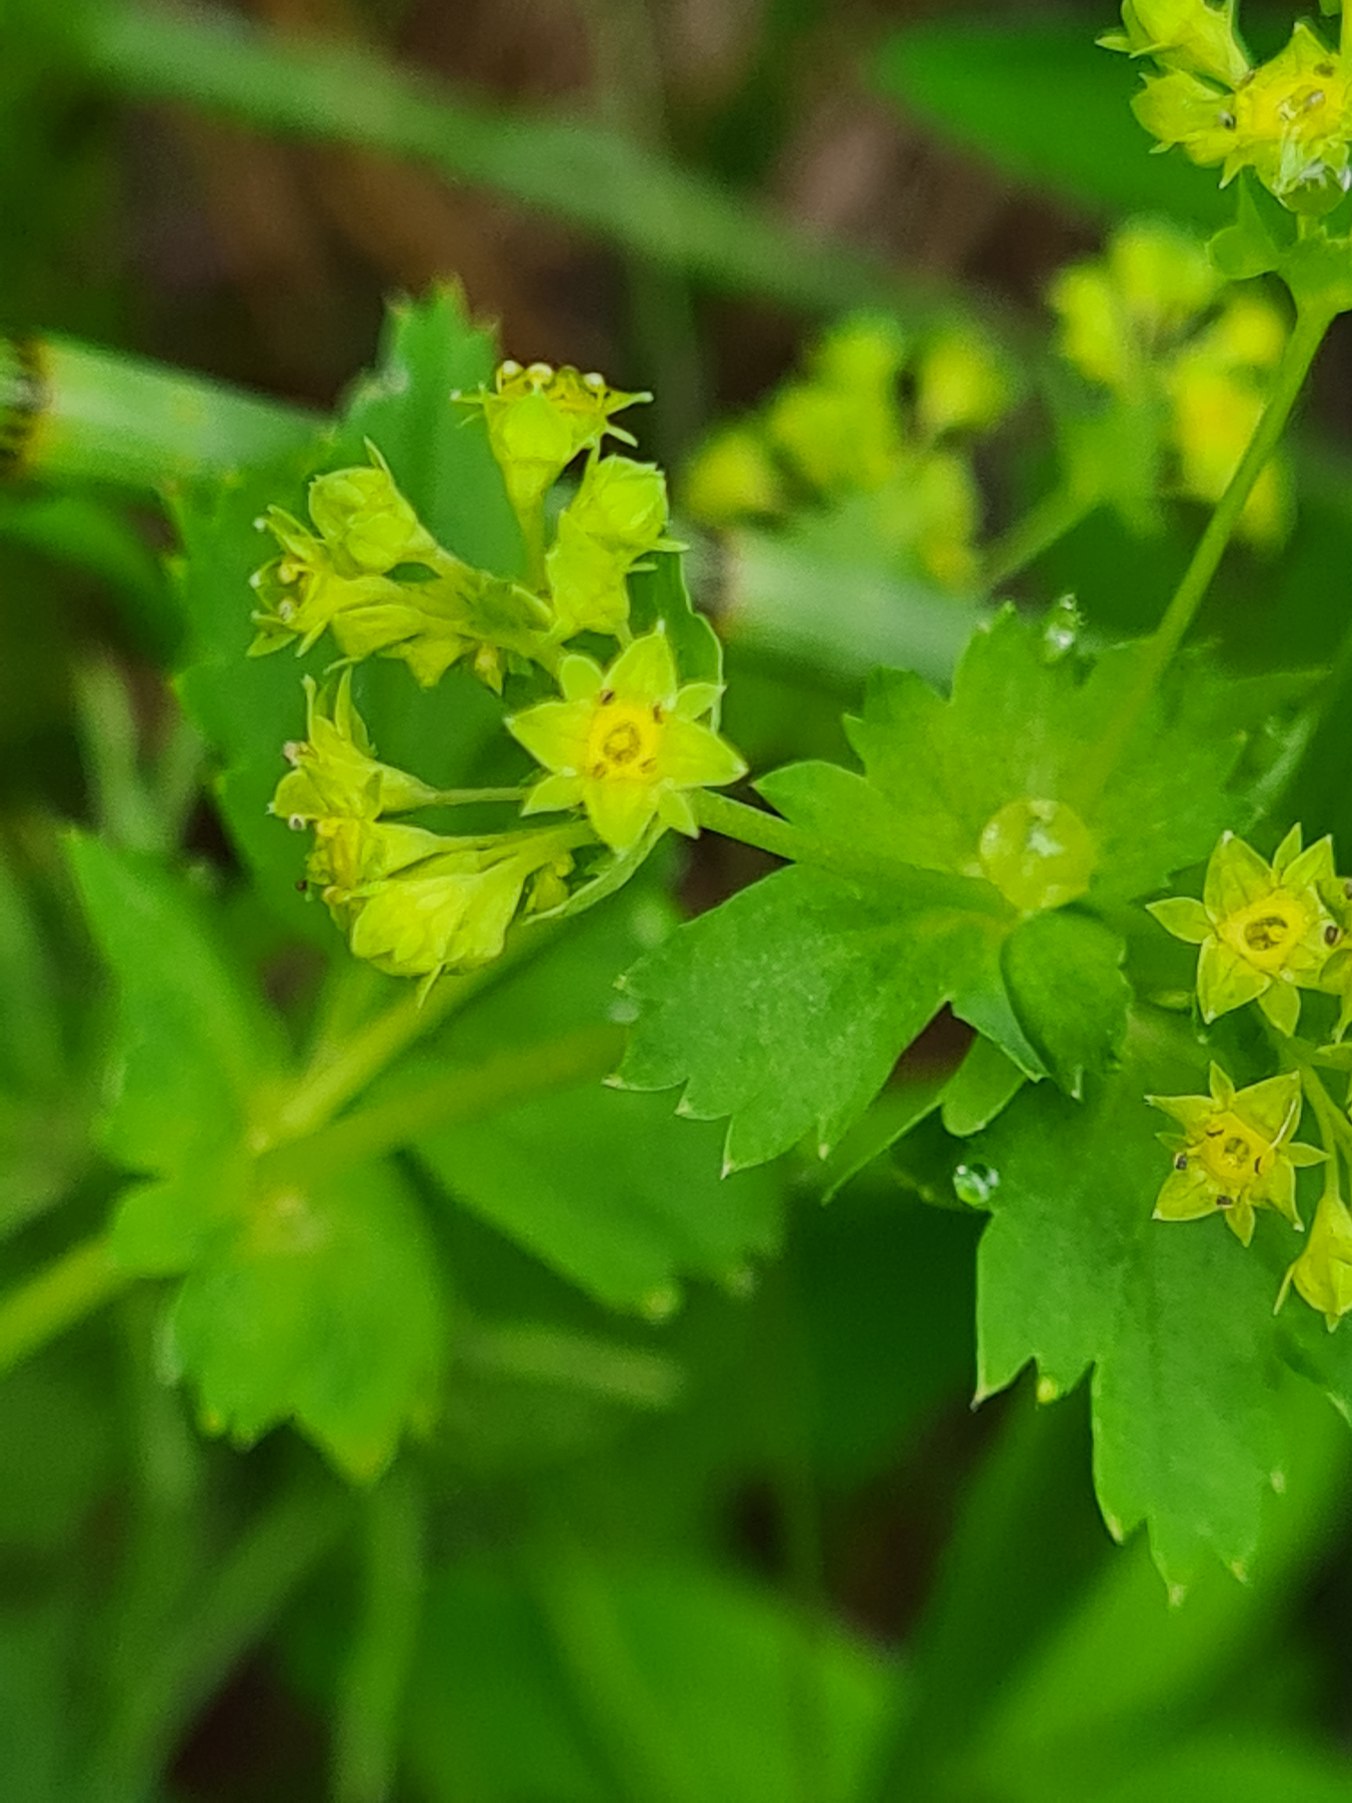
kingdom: Plantae
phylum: Tracheophyta
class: Magnoliopsida
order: Rosales
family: Rosaceae
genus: Alchemilla
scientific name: Alchemilla glabra
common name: Glat løvefod
